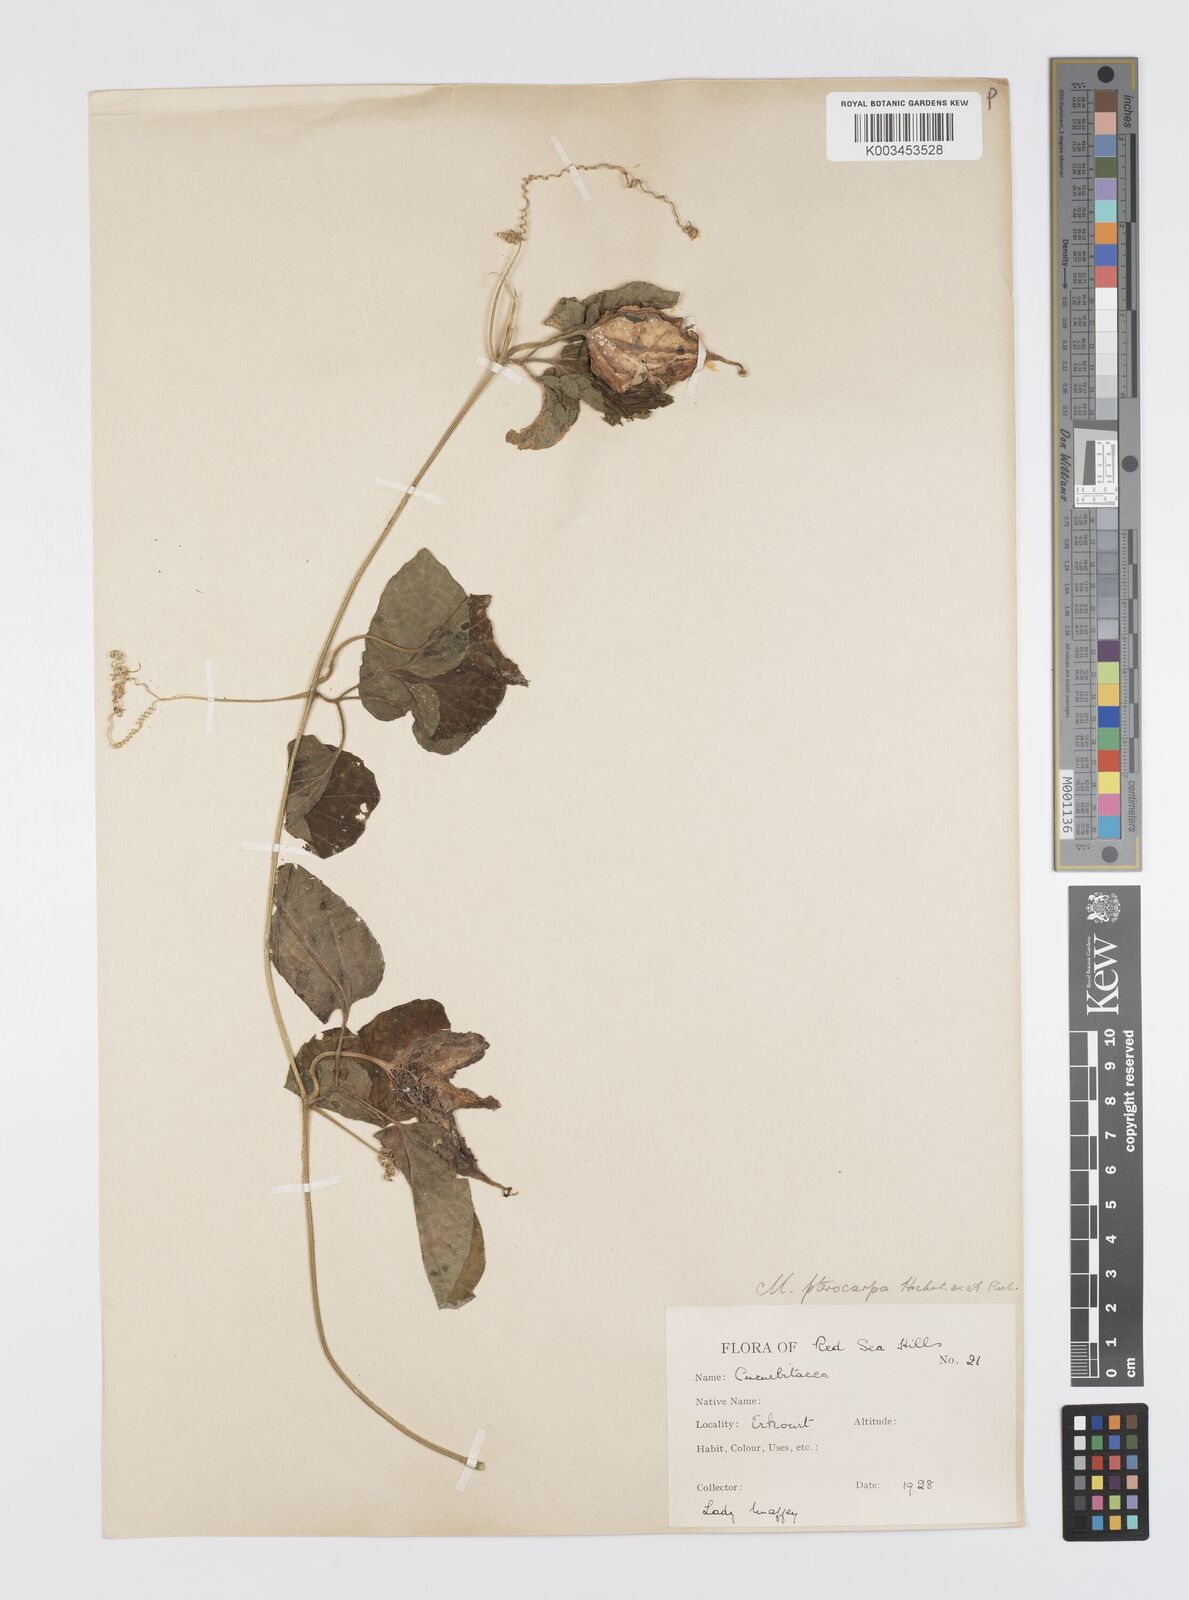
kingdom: Plantae
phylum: Tracheophyta
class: Magnoliopsida
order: Cucurbitales
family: Cucurbitaceae
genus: Momordica
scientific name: Momordica pterocarpa
